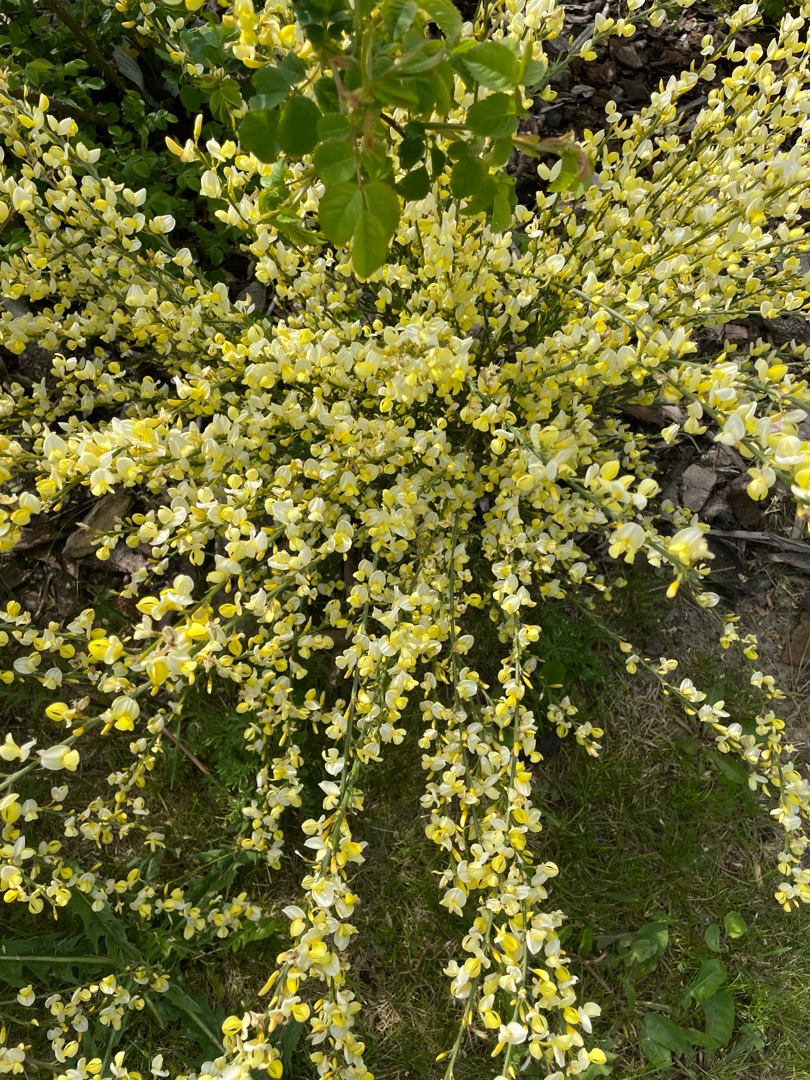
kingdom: Plantae
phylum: Tracheophyta
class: Magnoliopsida
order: Fabales
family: Fabaceae
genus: Cytisus
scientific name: Cytisus scoparius
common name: Almindelig gyvel
